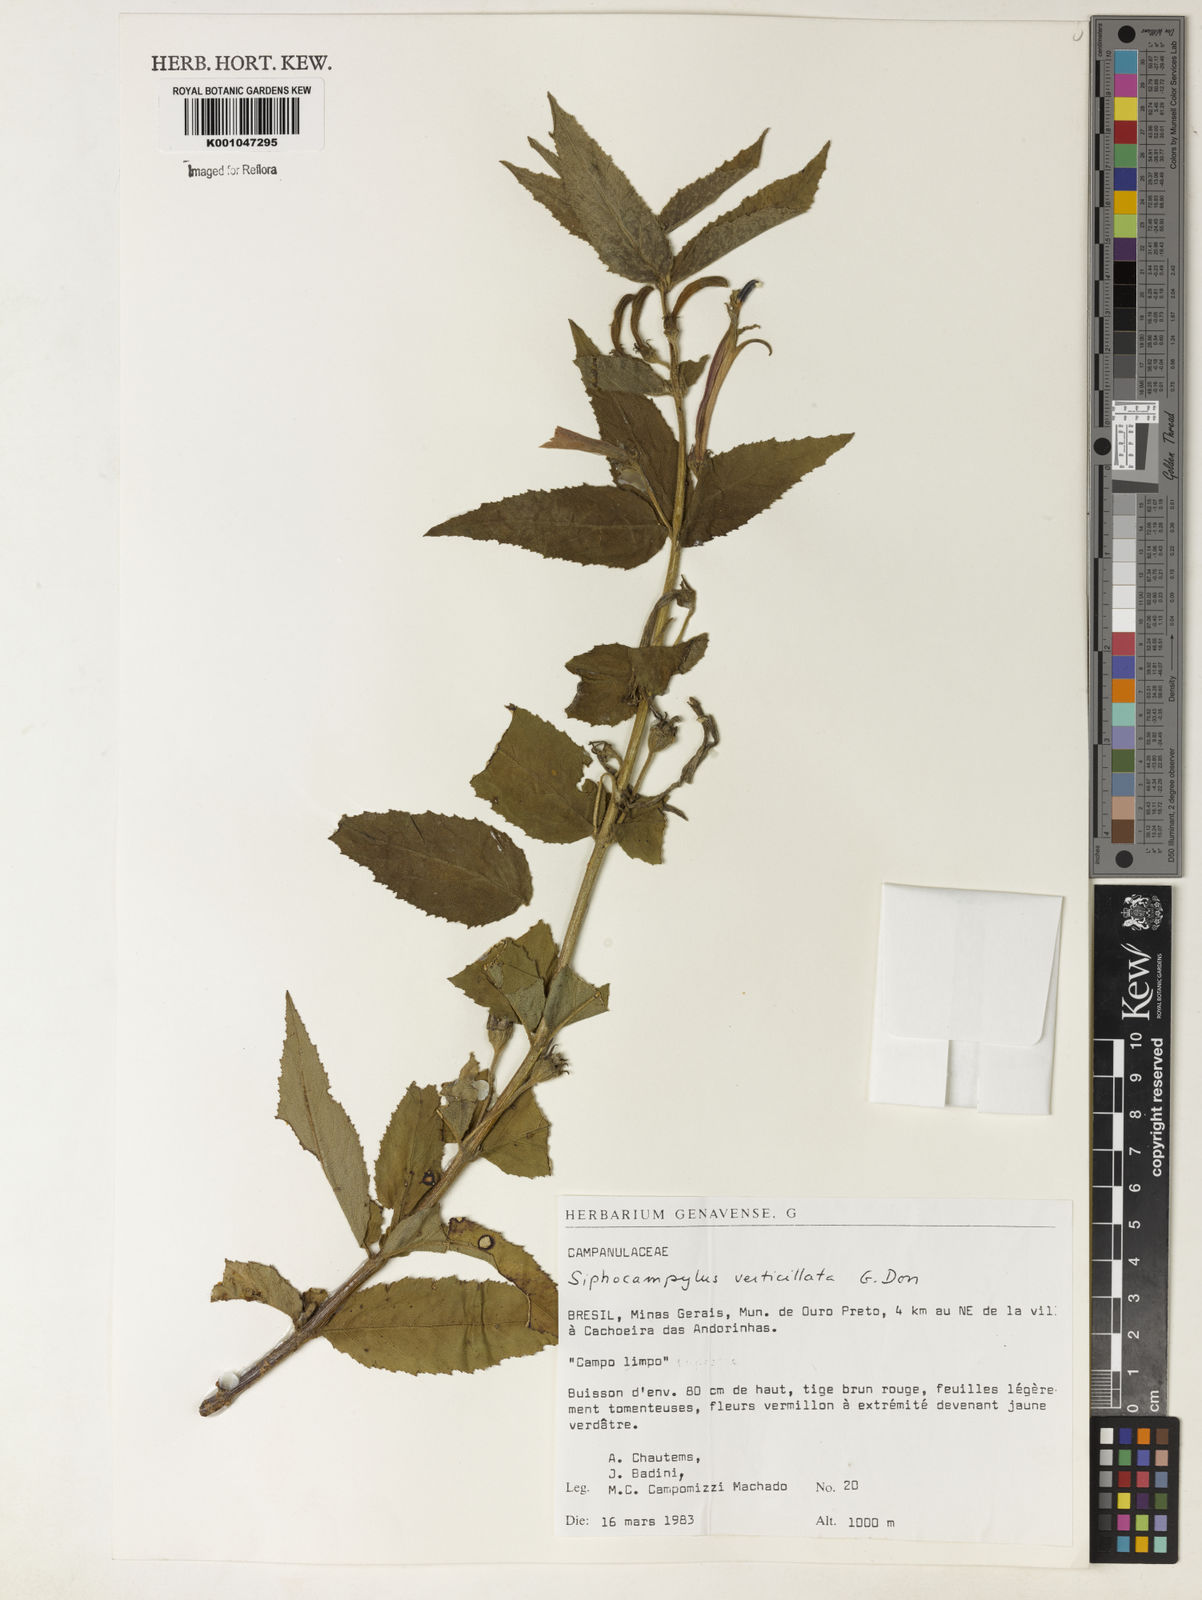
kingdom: Plantae
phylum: Tracheophyta
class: Magnoliopsida
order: Asterales
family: Campanulaceae
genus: Siphocampylus
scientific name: Siphocampylus verticillatus
